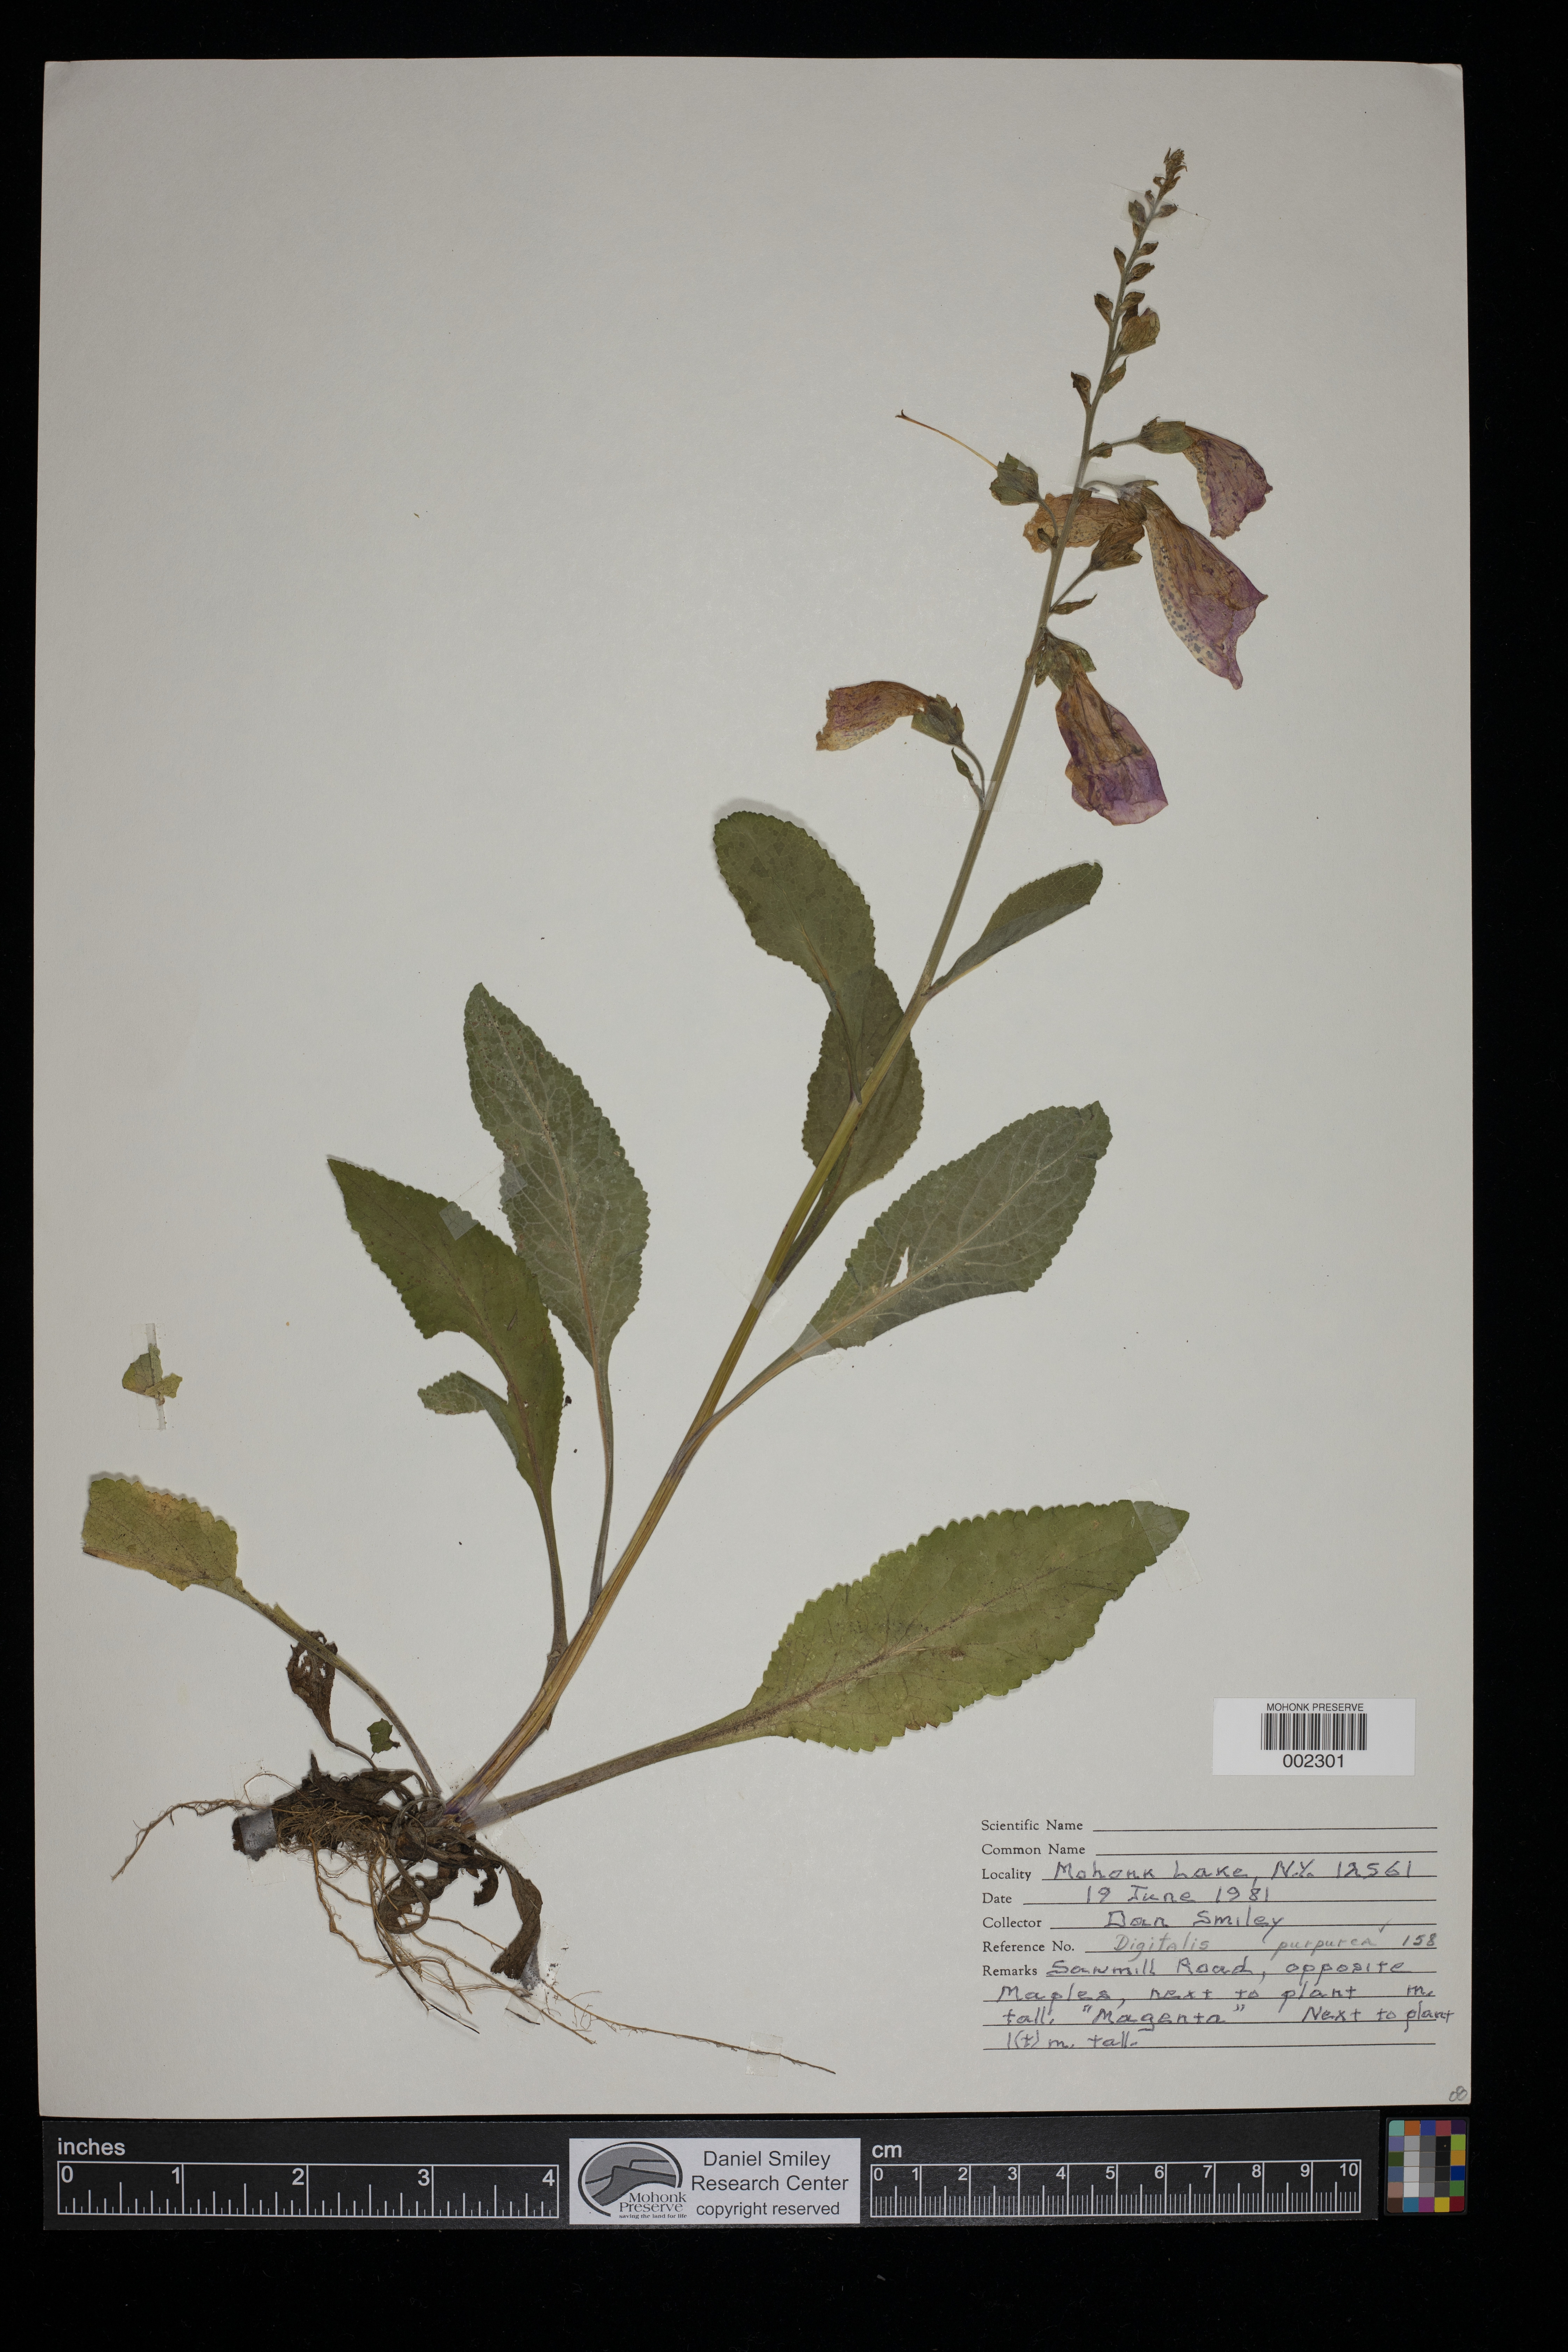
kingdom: Plantae
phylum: Tracheophyta
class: Magnoliopsida
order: Lamiales
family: Plantaginaceae
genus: Digitalis
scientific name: Digitalis purpurea
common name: Foxglove
